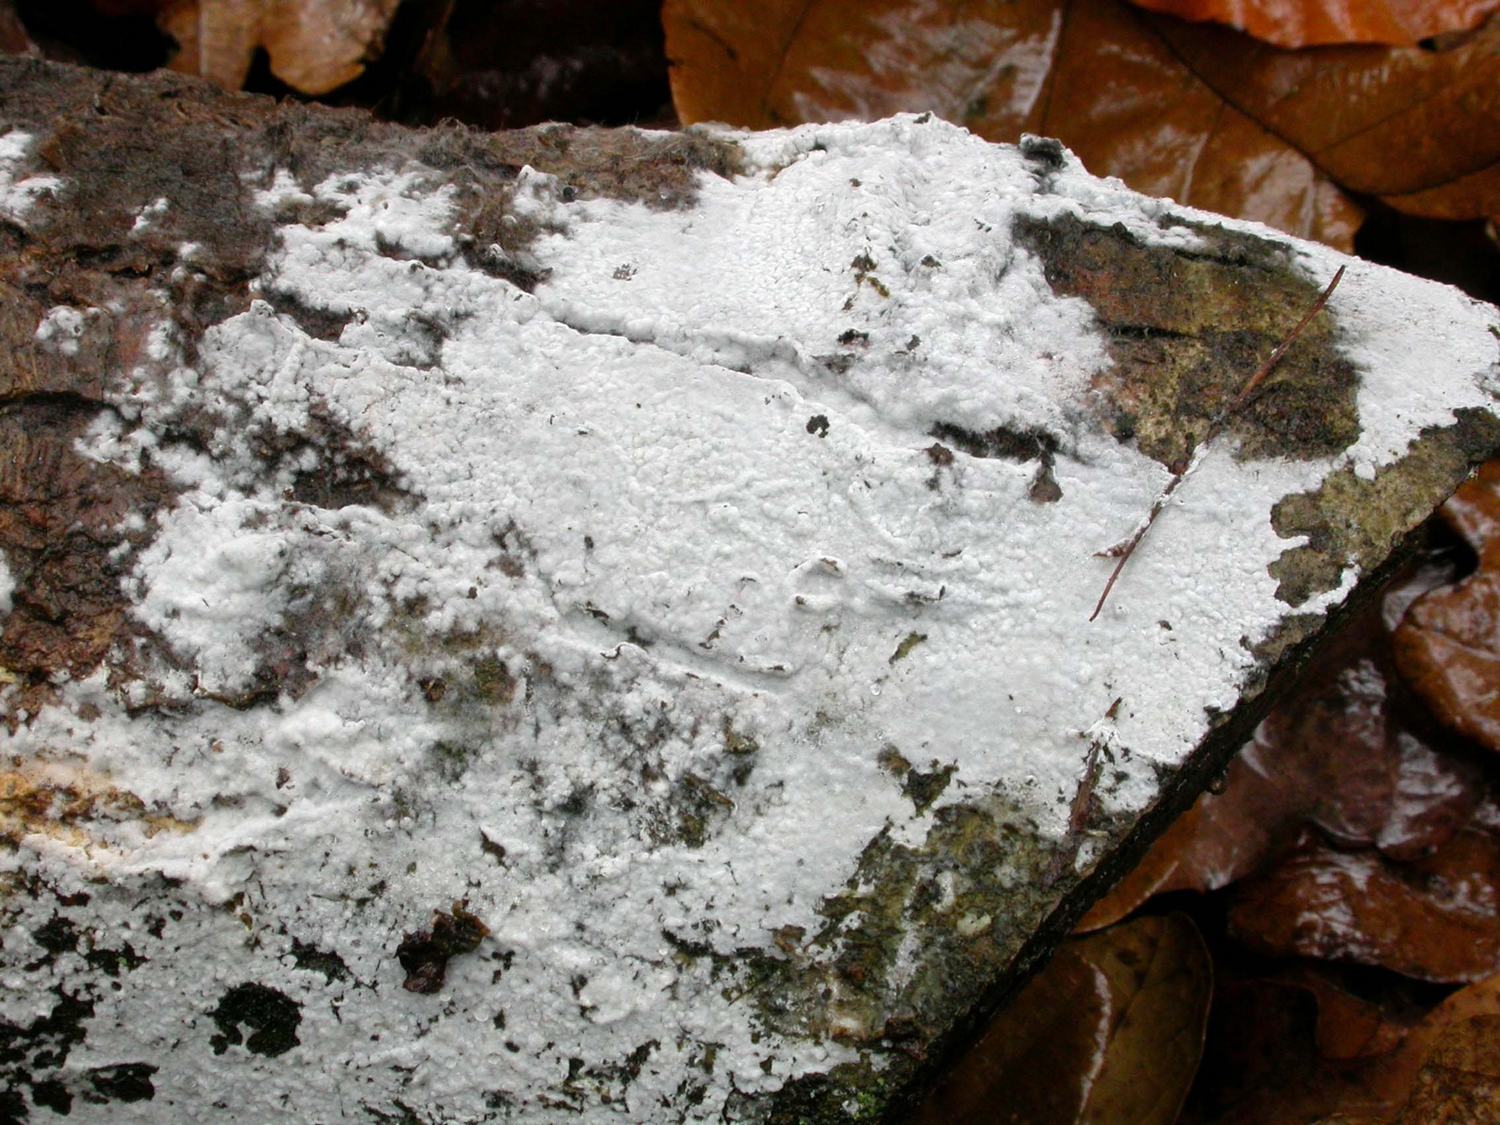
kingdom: Fungi
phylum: Basidiomycota
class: Agaricomycetes
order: Atheliales
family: Atheliaceae
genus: Athelia
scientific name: Athelia epiphylla
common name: almindelig barkhinde
